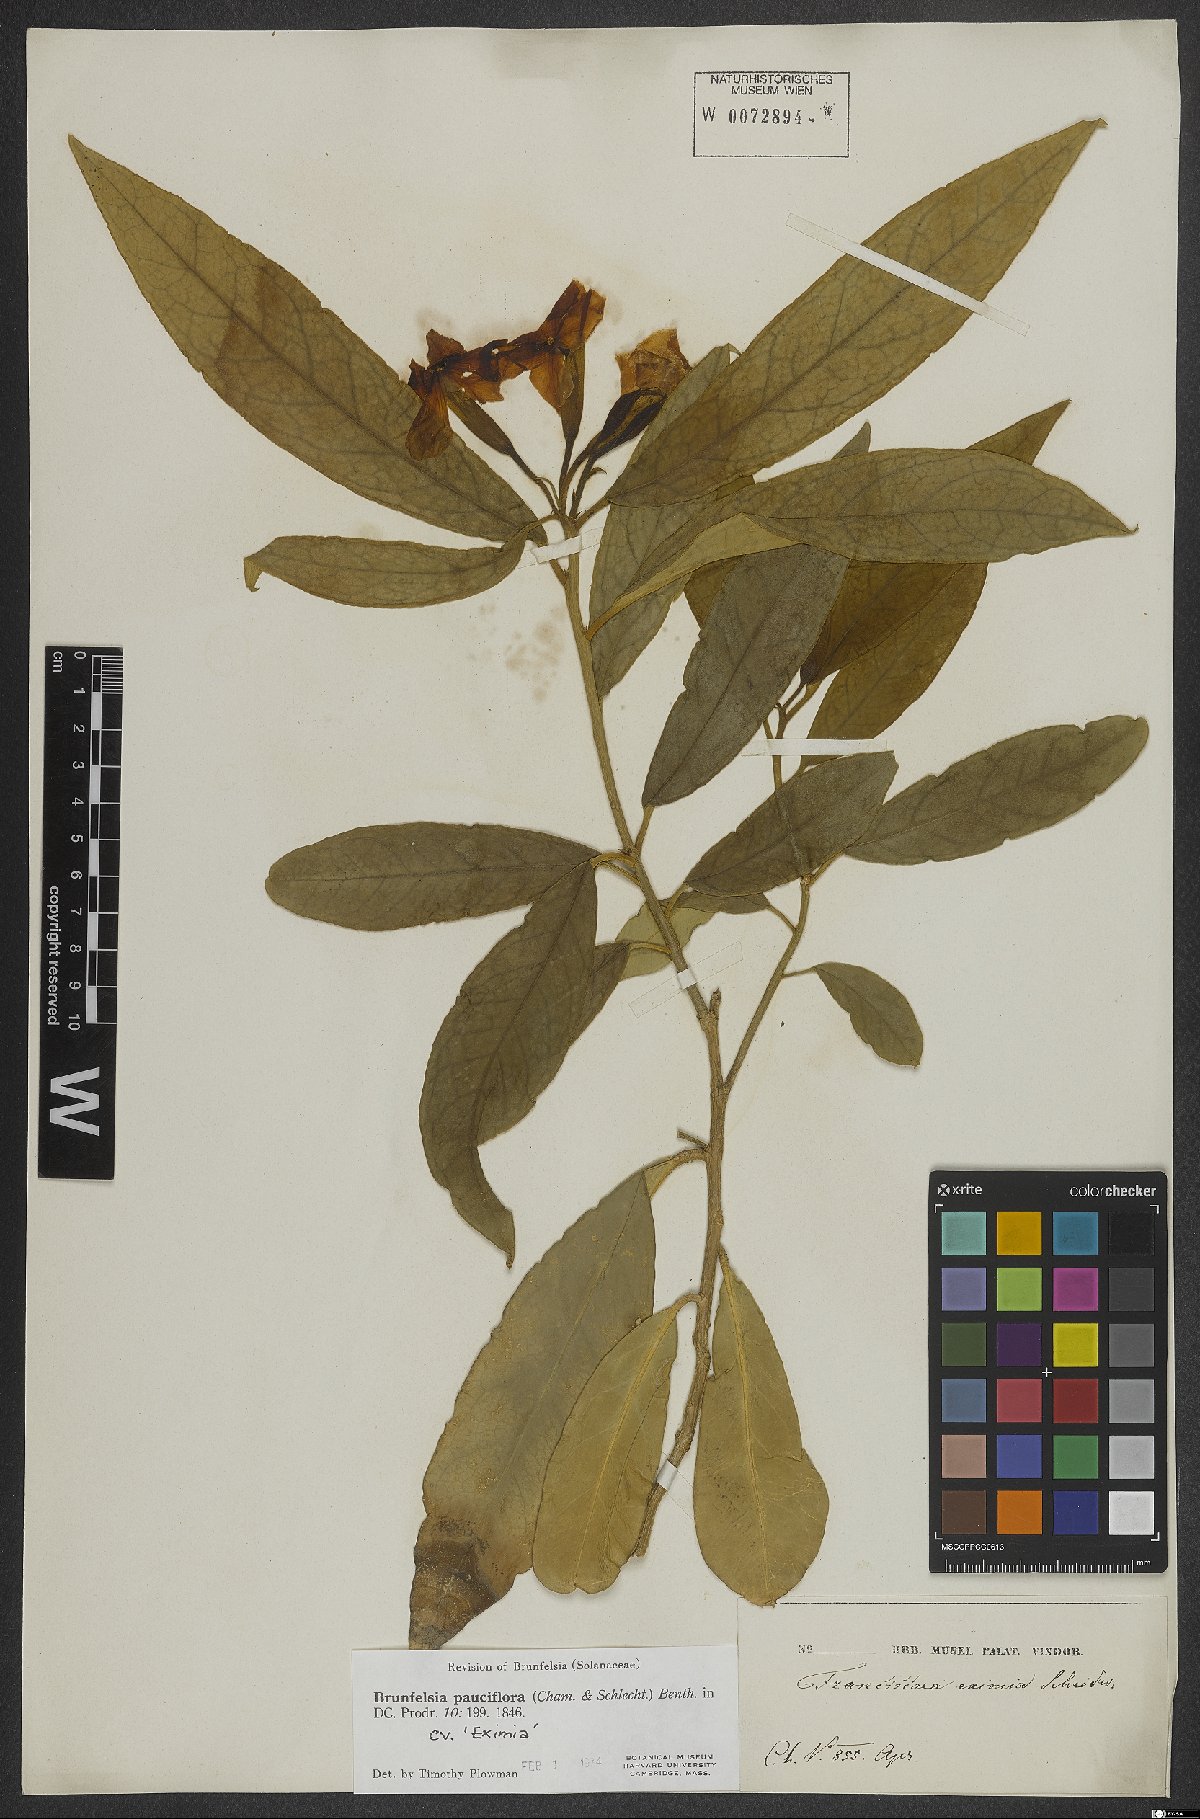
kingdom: Plantae
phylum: Tracheophyta
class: Magnoliopsida
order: Solanales
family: Solanaceae
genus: Brunfelsia
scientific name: Brunfelsia pauciflora
